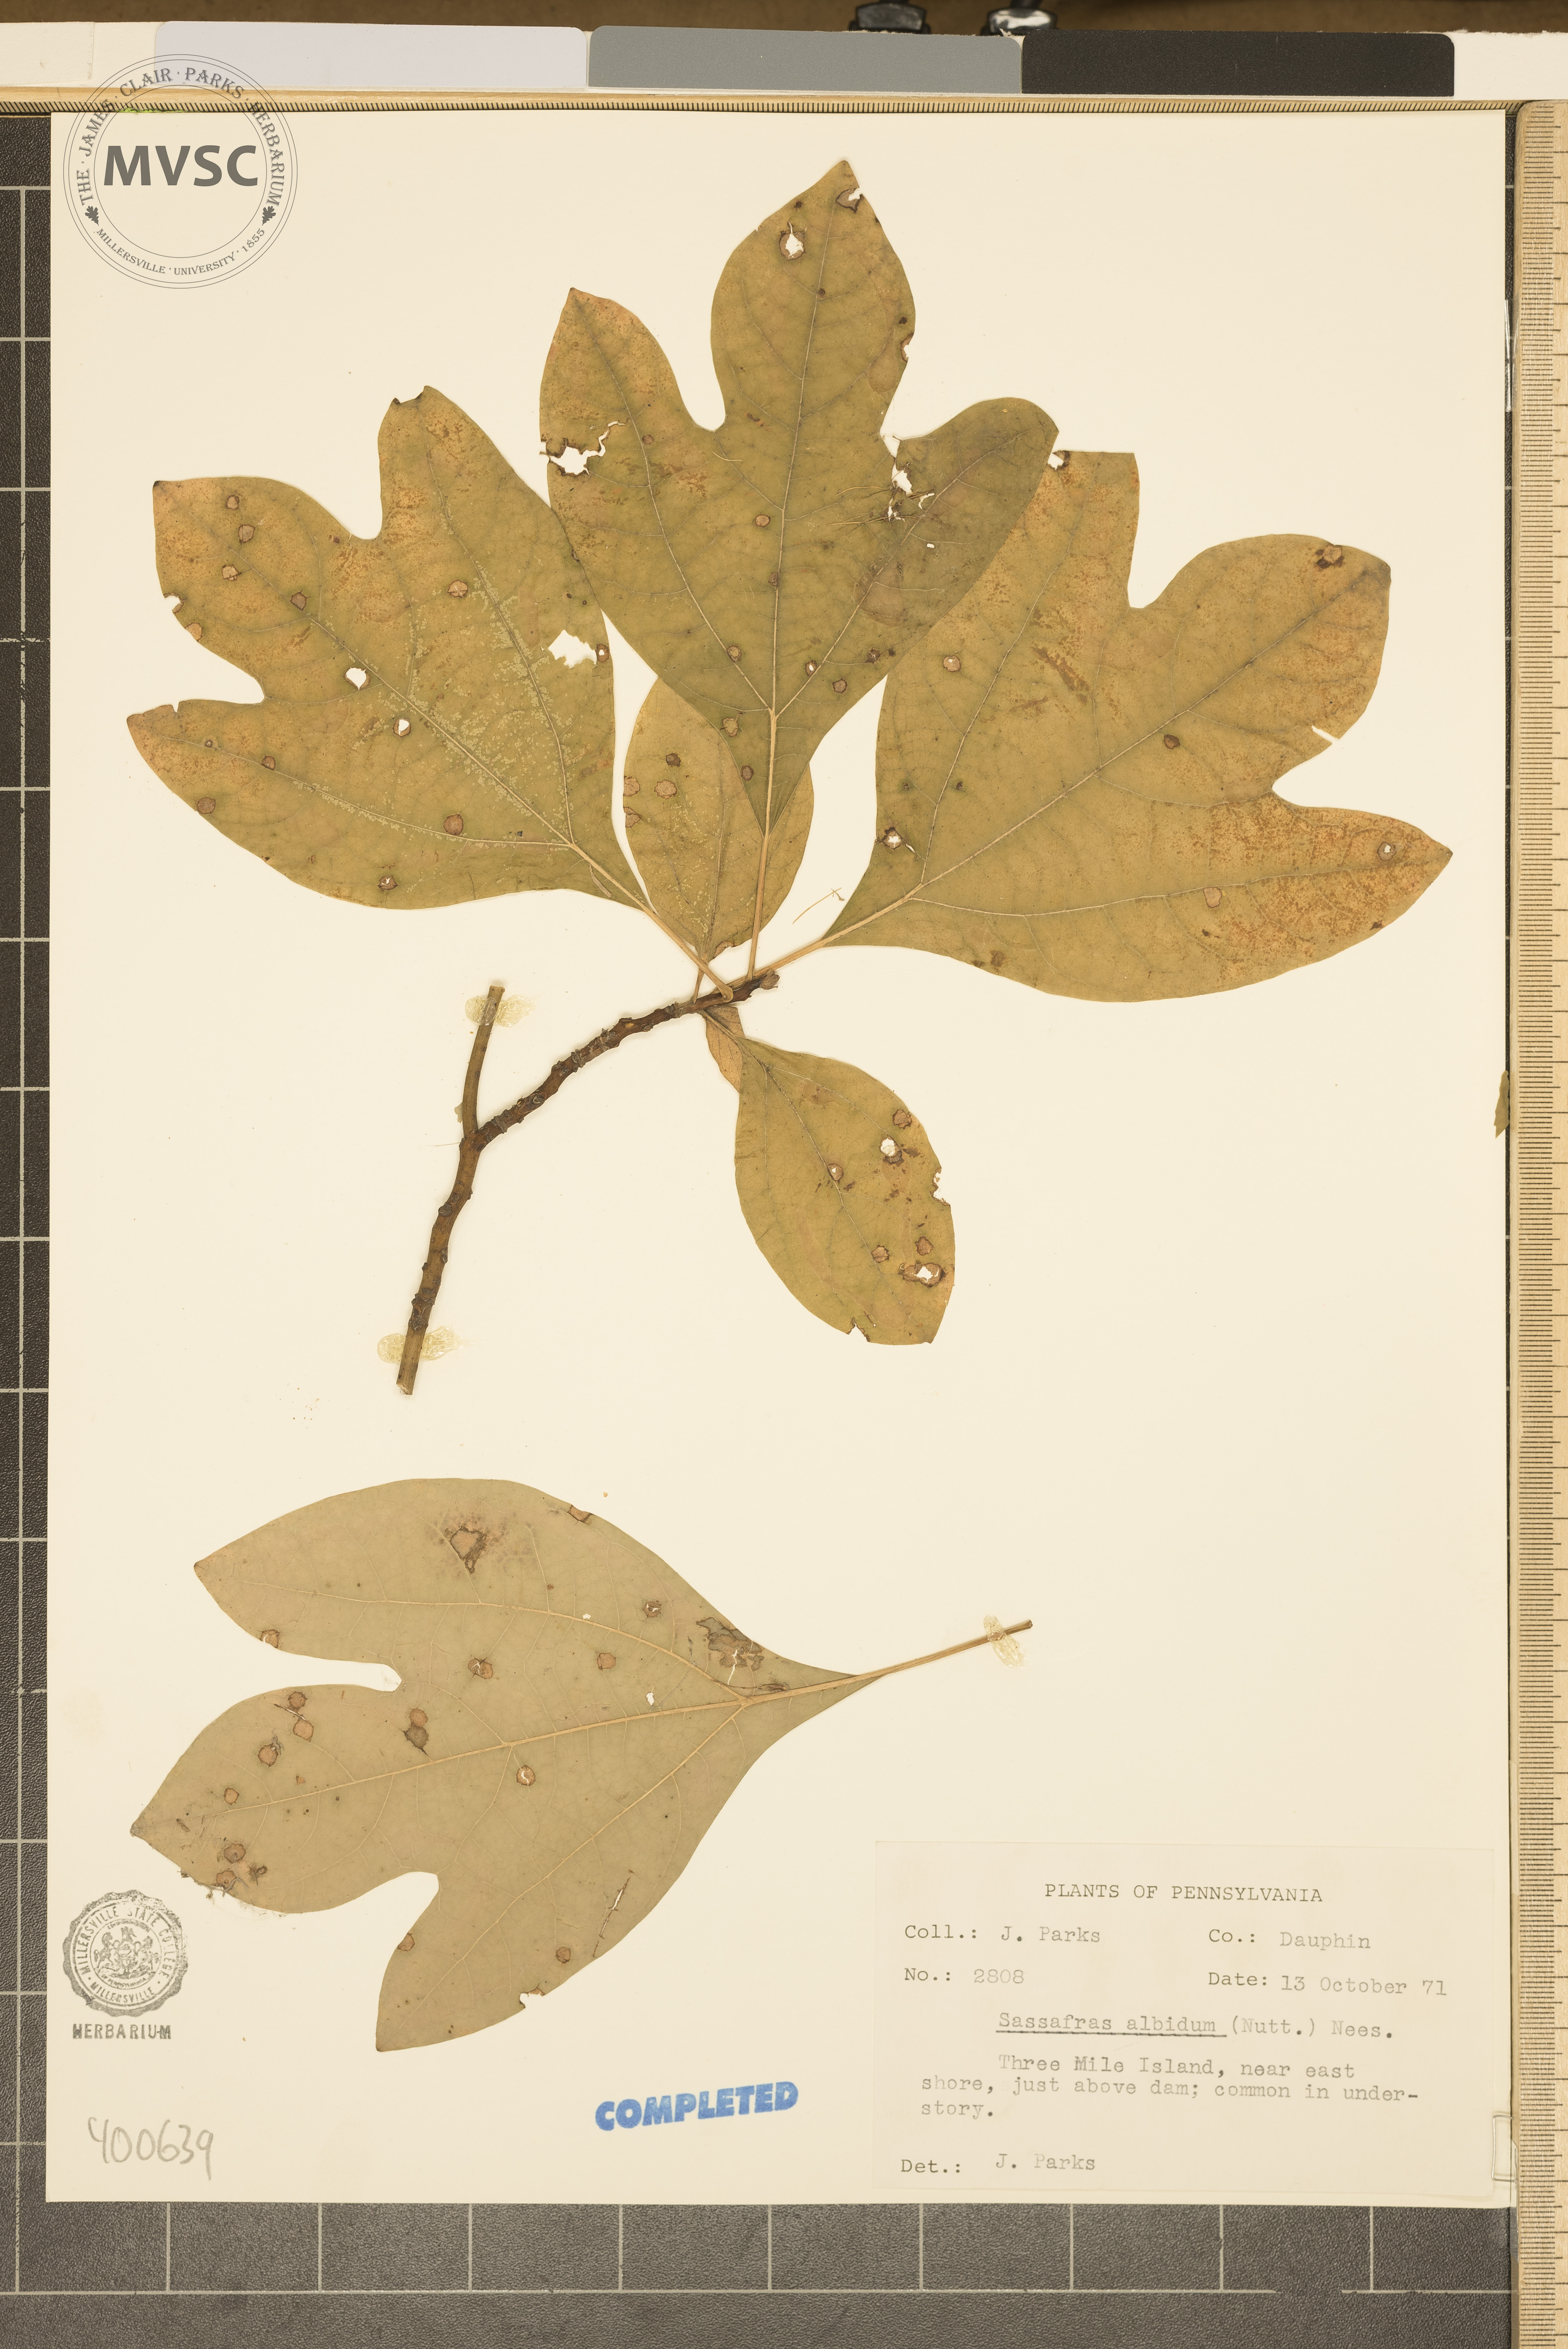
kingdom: Plantae
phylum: Tracheophyta
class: Magnoliopsida
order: Laurales
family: Lauraceae
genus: Sassafras
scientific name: Sassafras albidum
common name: sassafras
